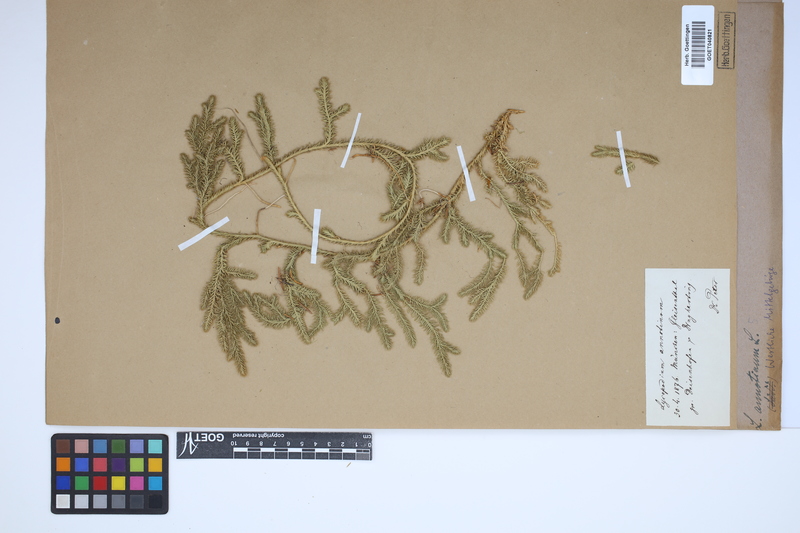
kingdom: Plantae
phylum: Tracheophyta
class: Lycopodiopsida
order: Lycopodiales
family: Lycopodiaceae
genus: Spinulum
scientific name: Spinulum annotinum
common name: Interrupted club-moss
